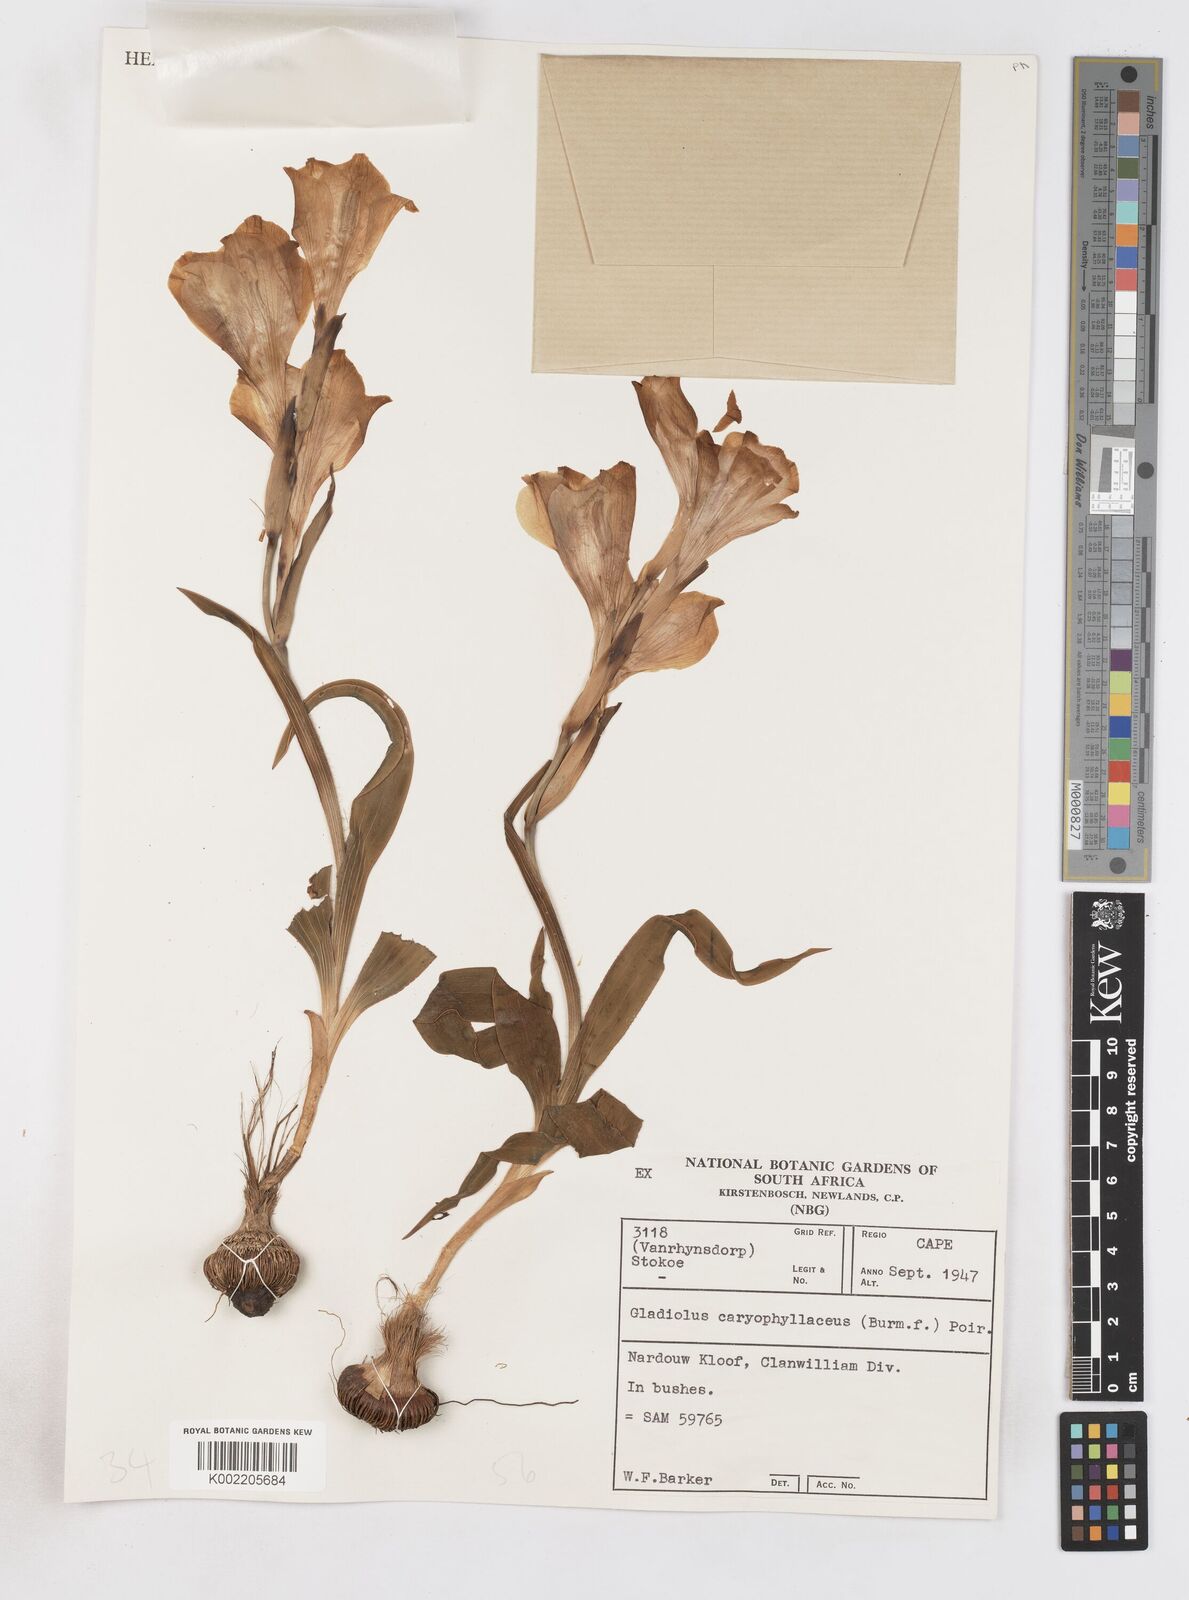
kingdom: Plantae
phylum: Tracheophyta
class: Liliopsida
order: Asparagales
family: Iridaceae
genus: Gladiolus
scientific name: Gladiolus caryophyllaceus
